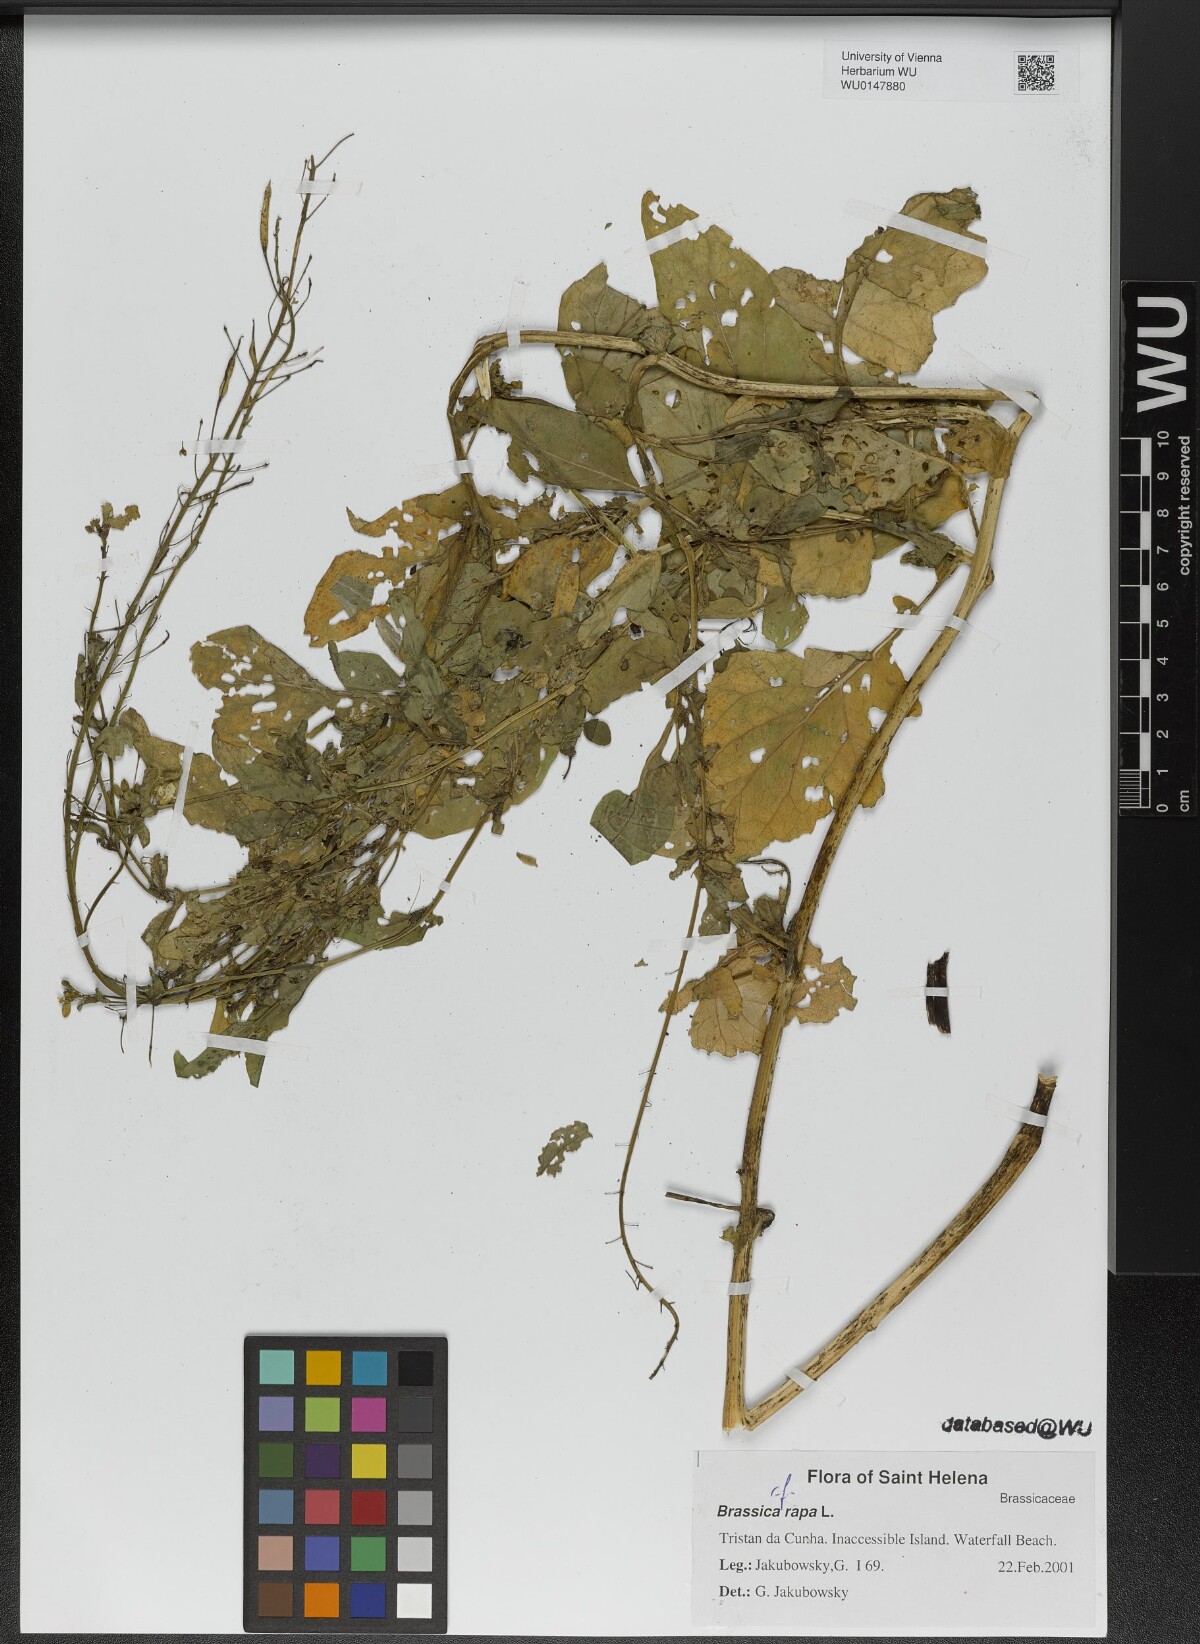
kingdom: Plantae
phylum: Tracheophyta
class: Magnoliopsida
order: Brassicales
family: Brassicaceae
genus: Brassica
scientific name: Brassica rapa
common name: Field mustard
